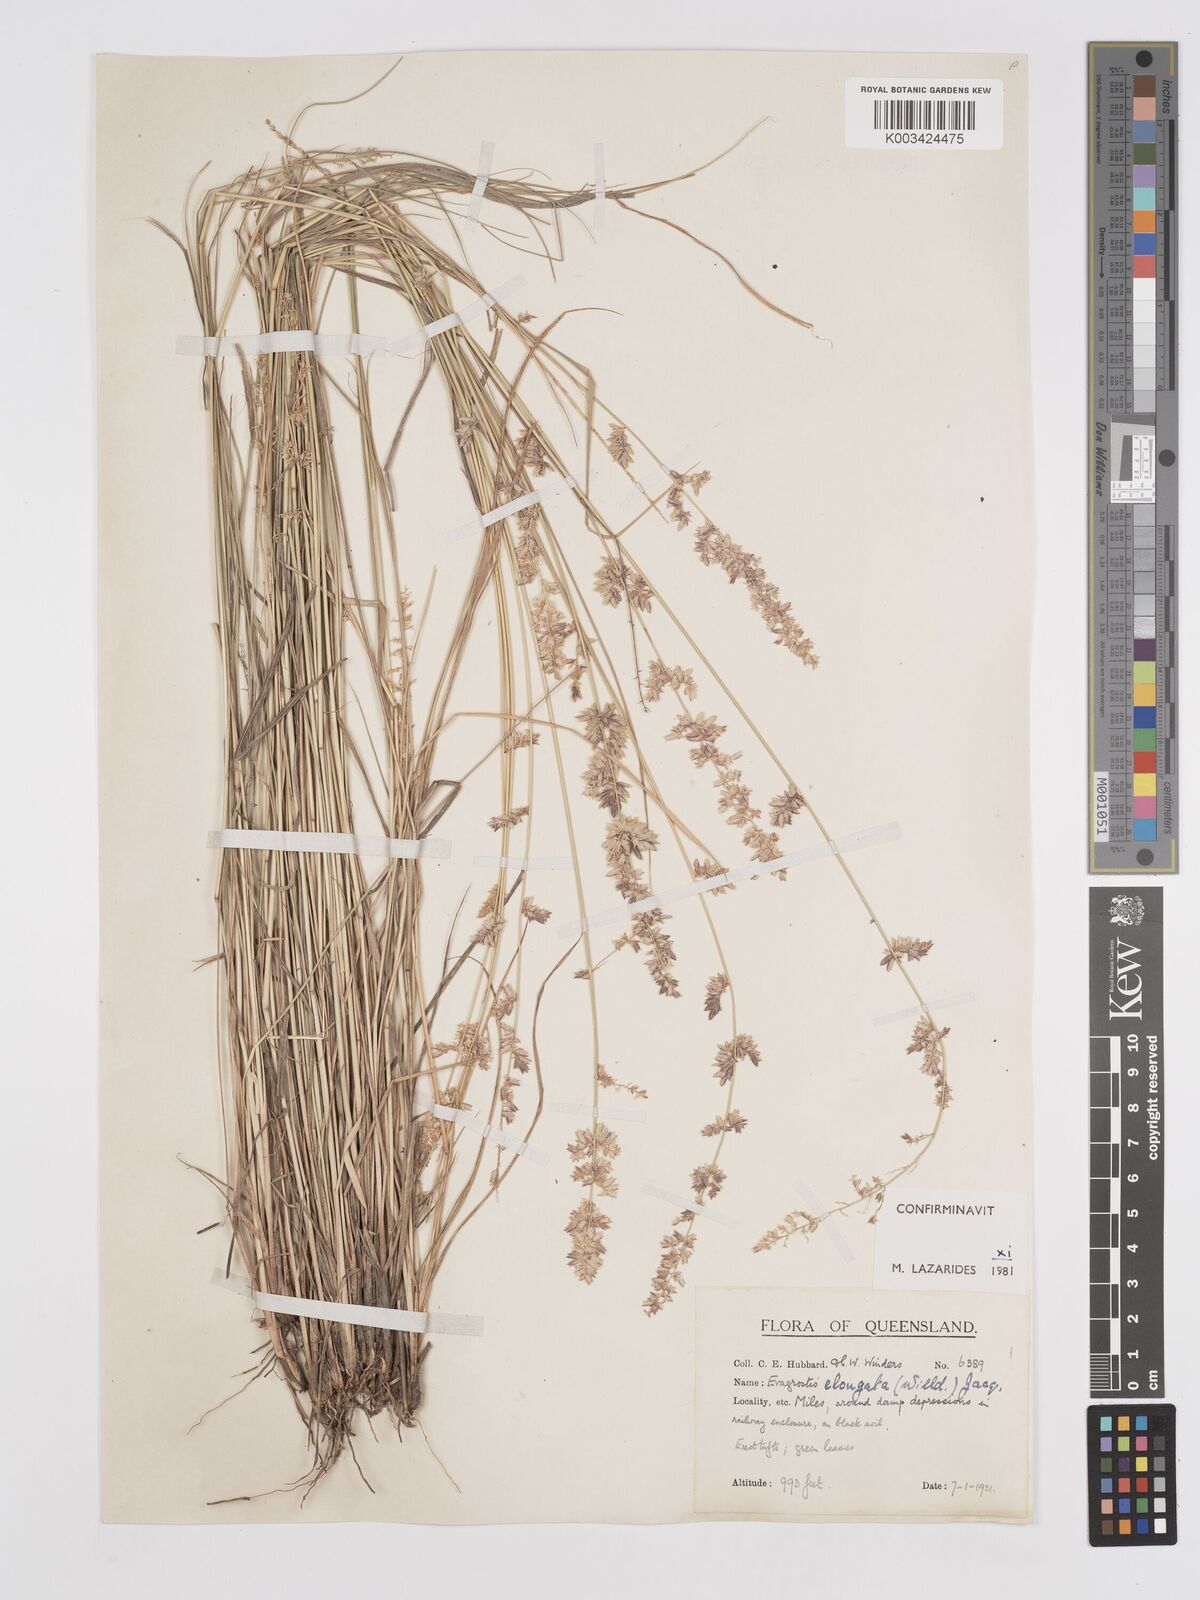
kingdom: Plantae
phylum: Tracheophyta
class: Liliopsida
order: Poales
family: Poaceae
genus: Eragrostis
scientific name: Eragrostis elongata
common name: Long lovegrass
